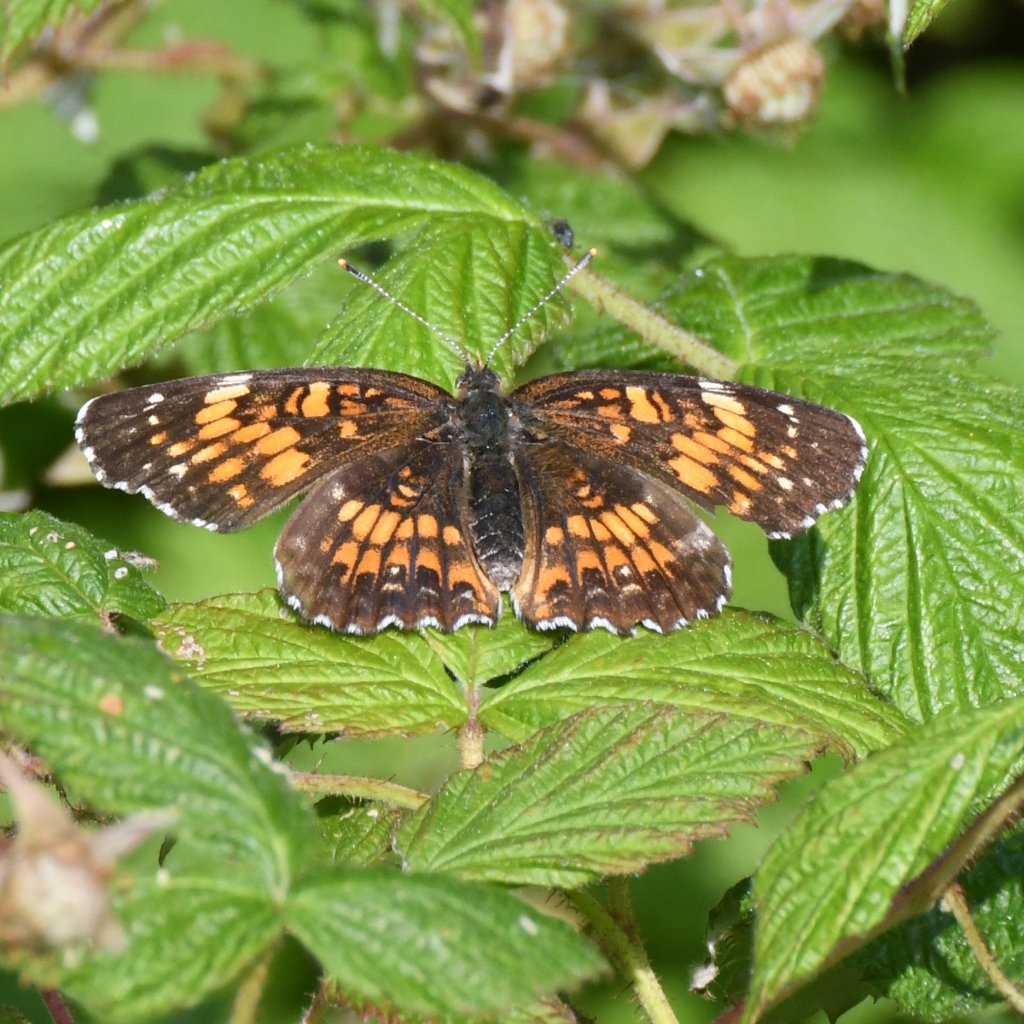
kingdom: Animalia
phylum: Arthropoda
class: Insecta
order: Lepidoptera
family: Nymphalidae
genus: Chlosyne
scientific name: Chlosyne harrisii
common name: Harris's Checkerspot
